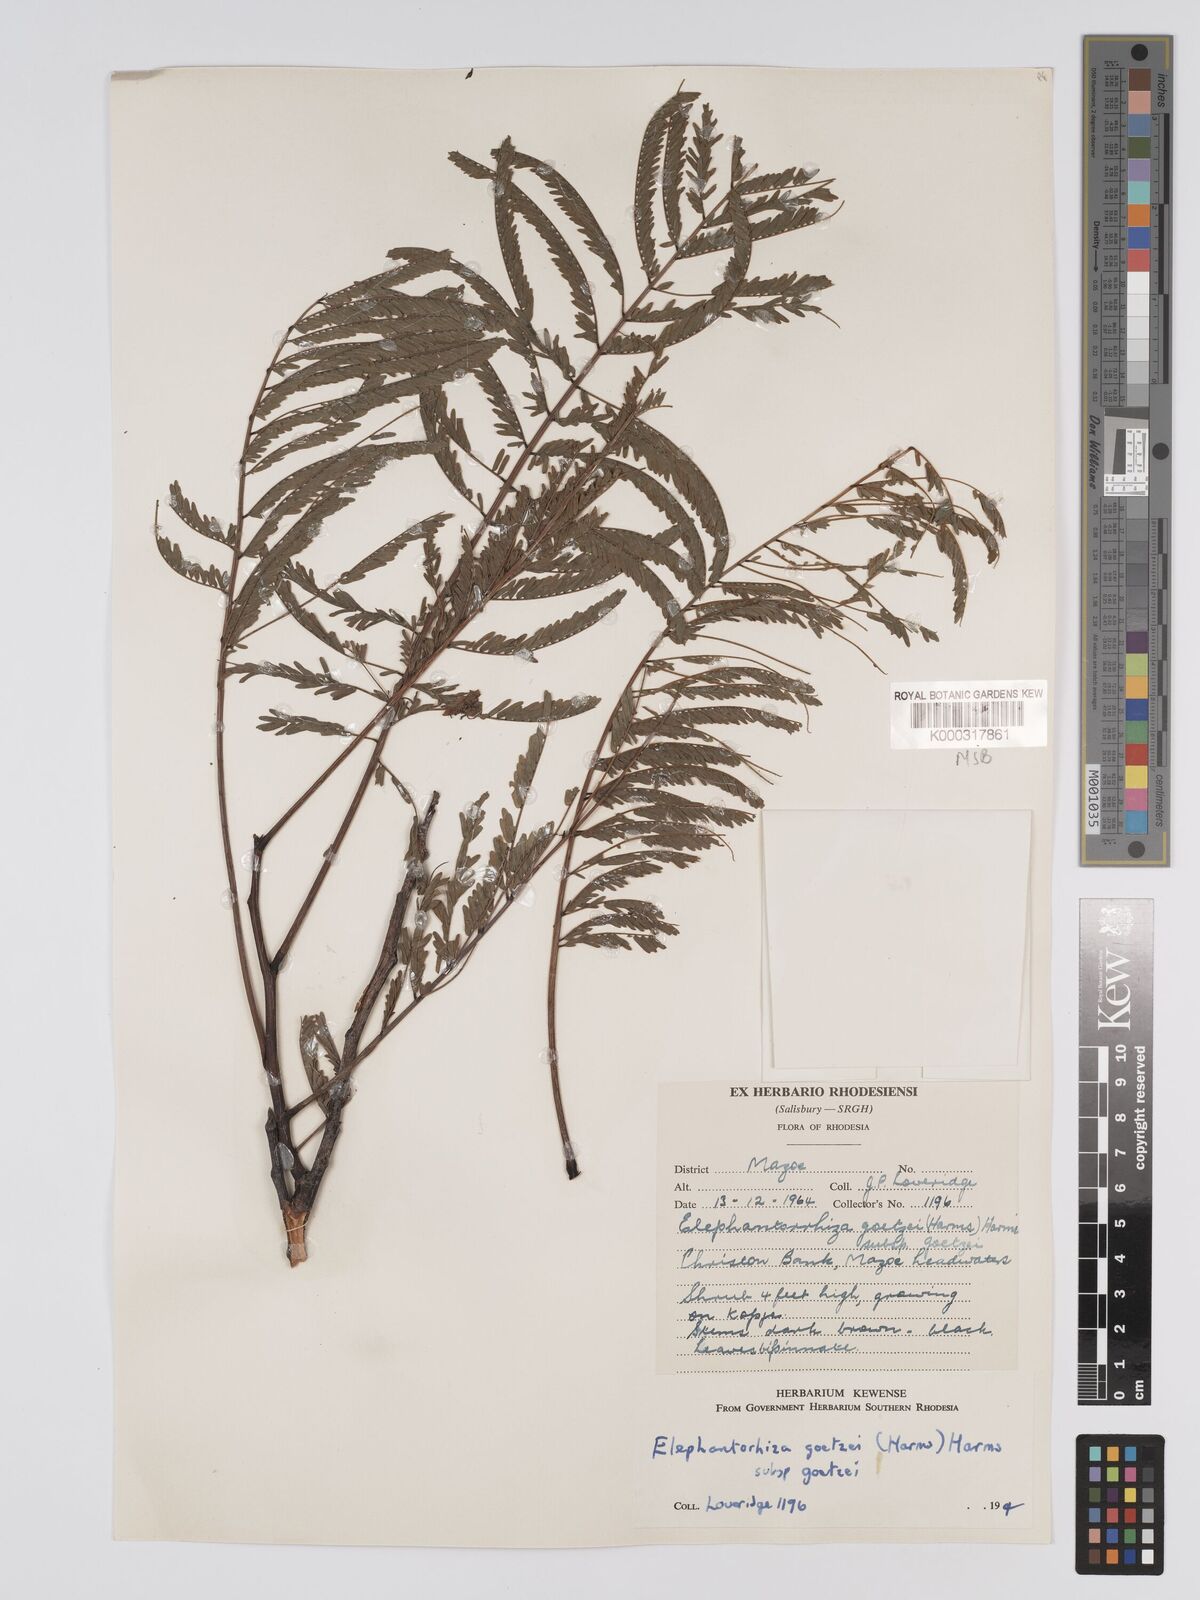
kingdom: Plantae
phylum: Tracheophyta
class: Magnoliopsida
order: Fabales
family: Fabaceae
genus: Elephantorrhiza
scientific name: Elephantorrhiza goetzei
